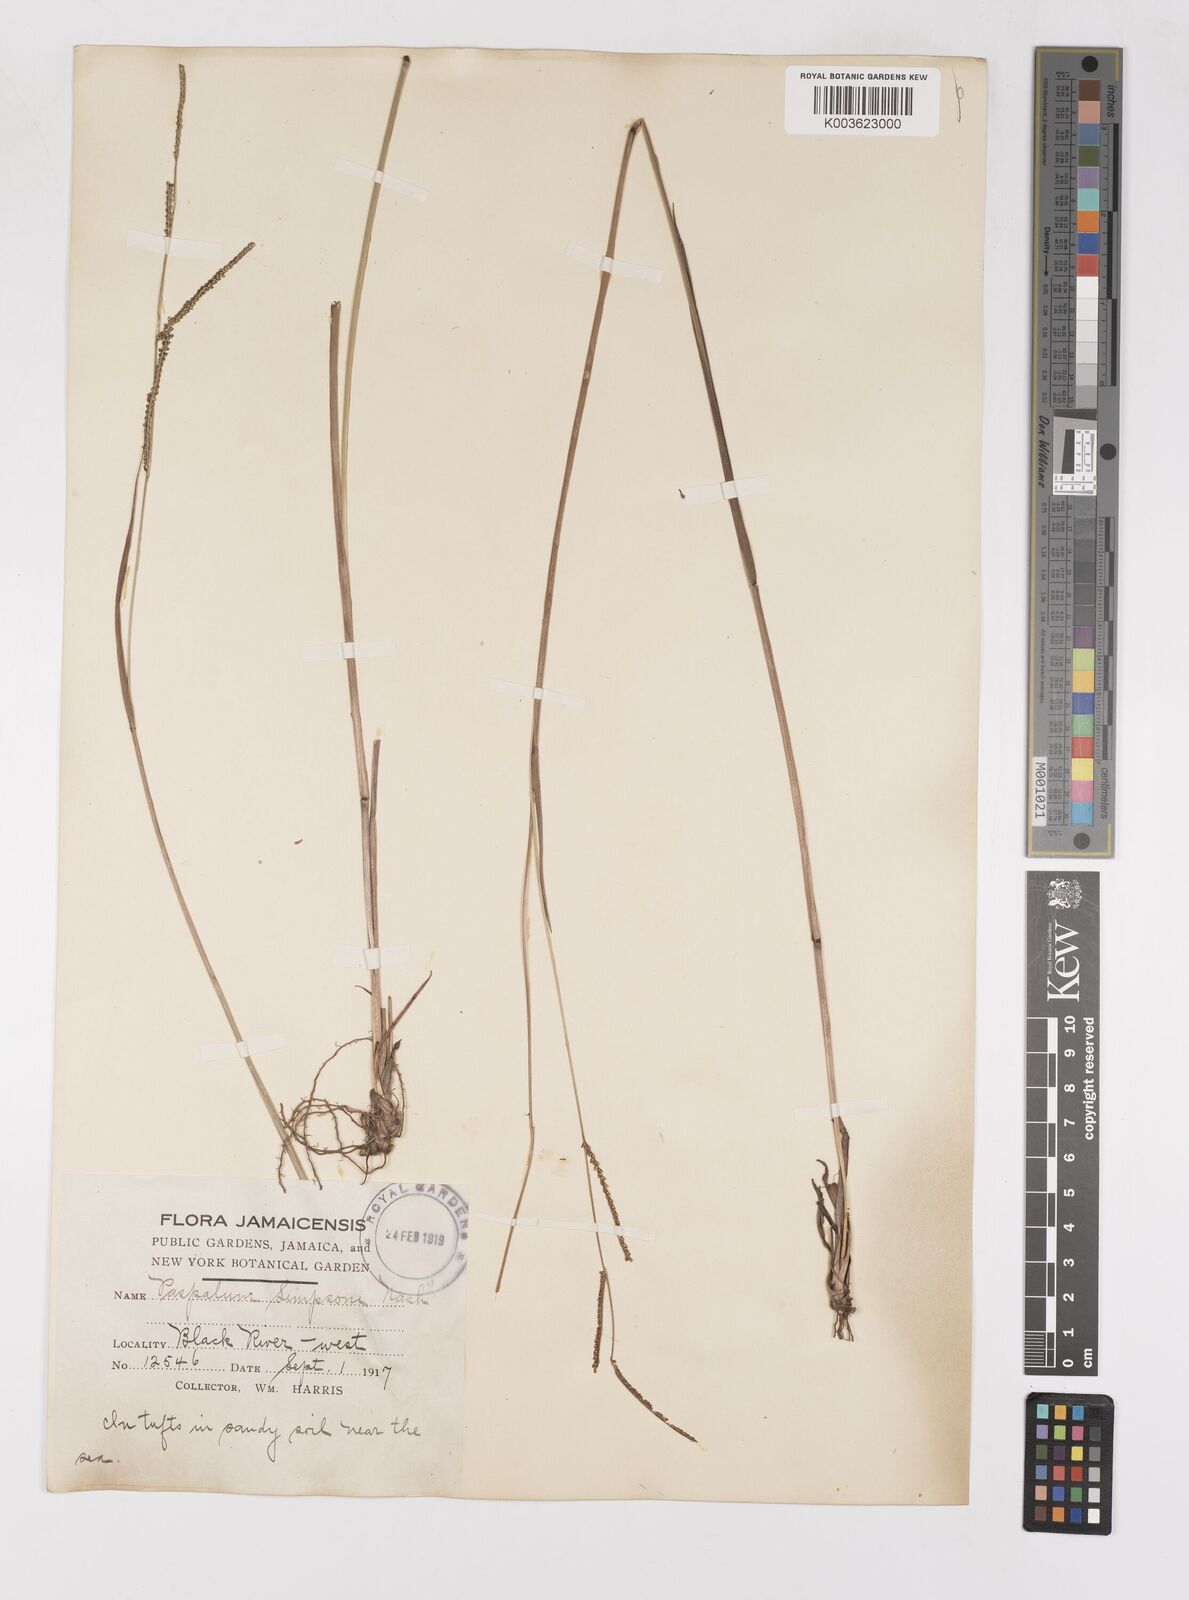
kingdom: Plantae
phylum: Tracheophyta
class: Liliopsida
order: Poales
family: Poaceae
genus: Paspalum
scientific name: Paspalum blodgettii
